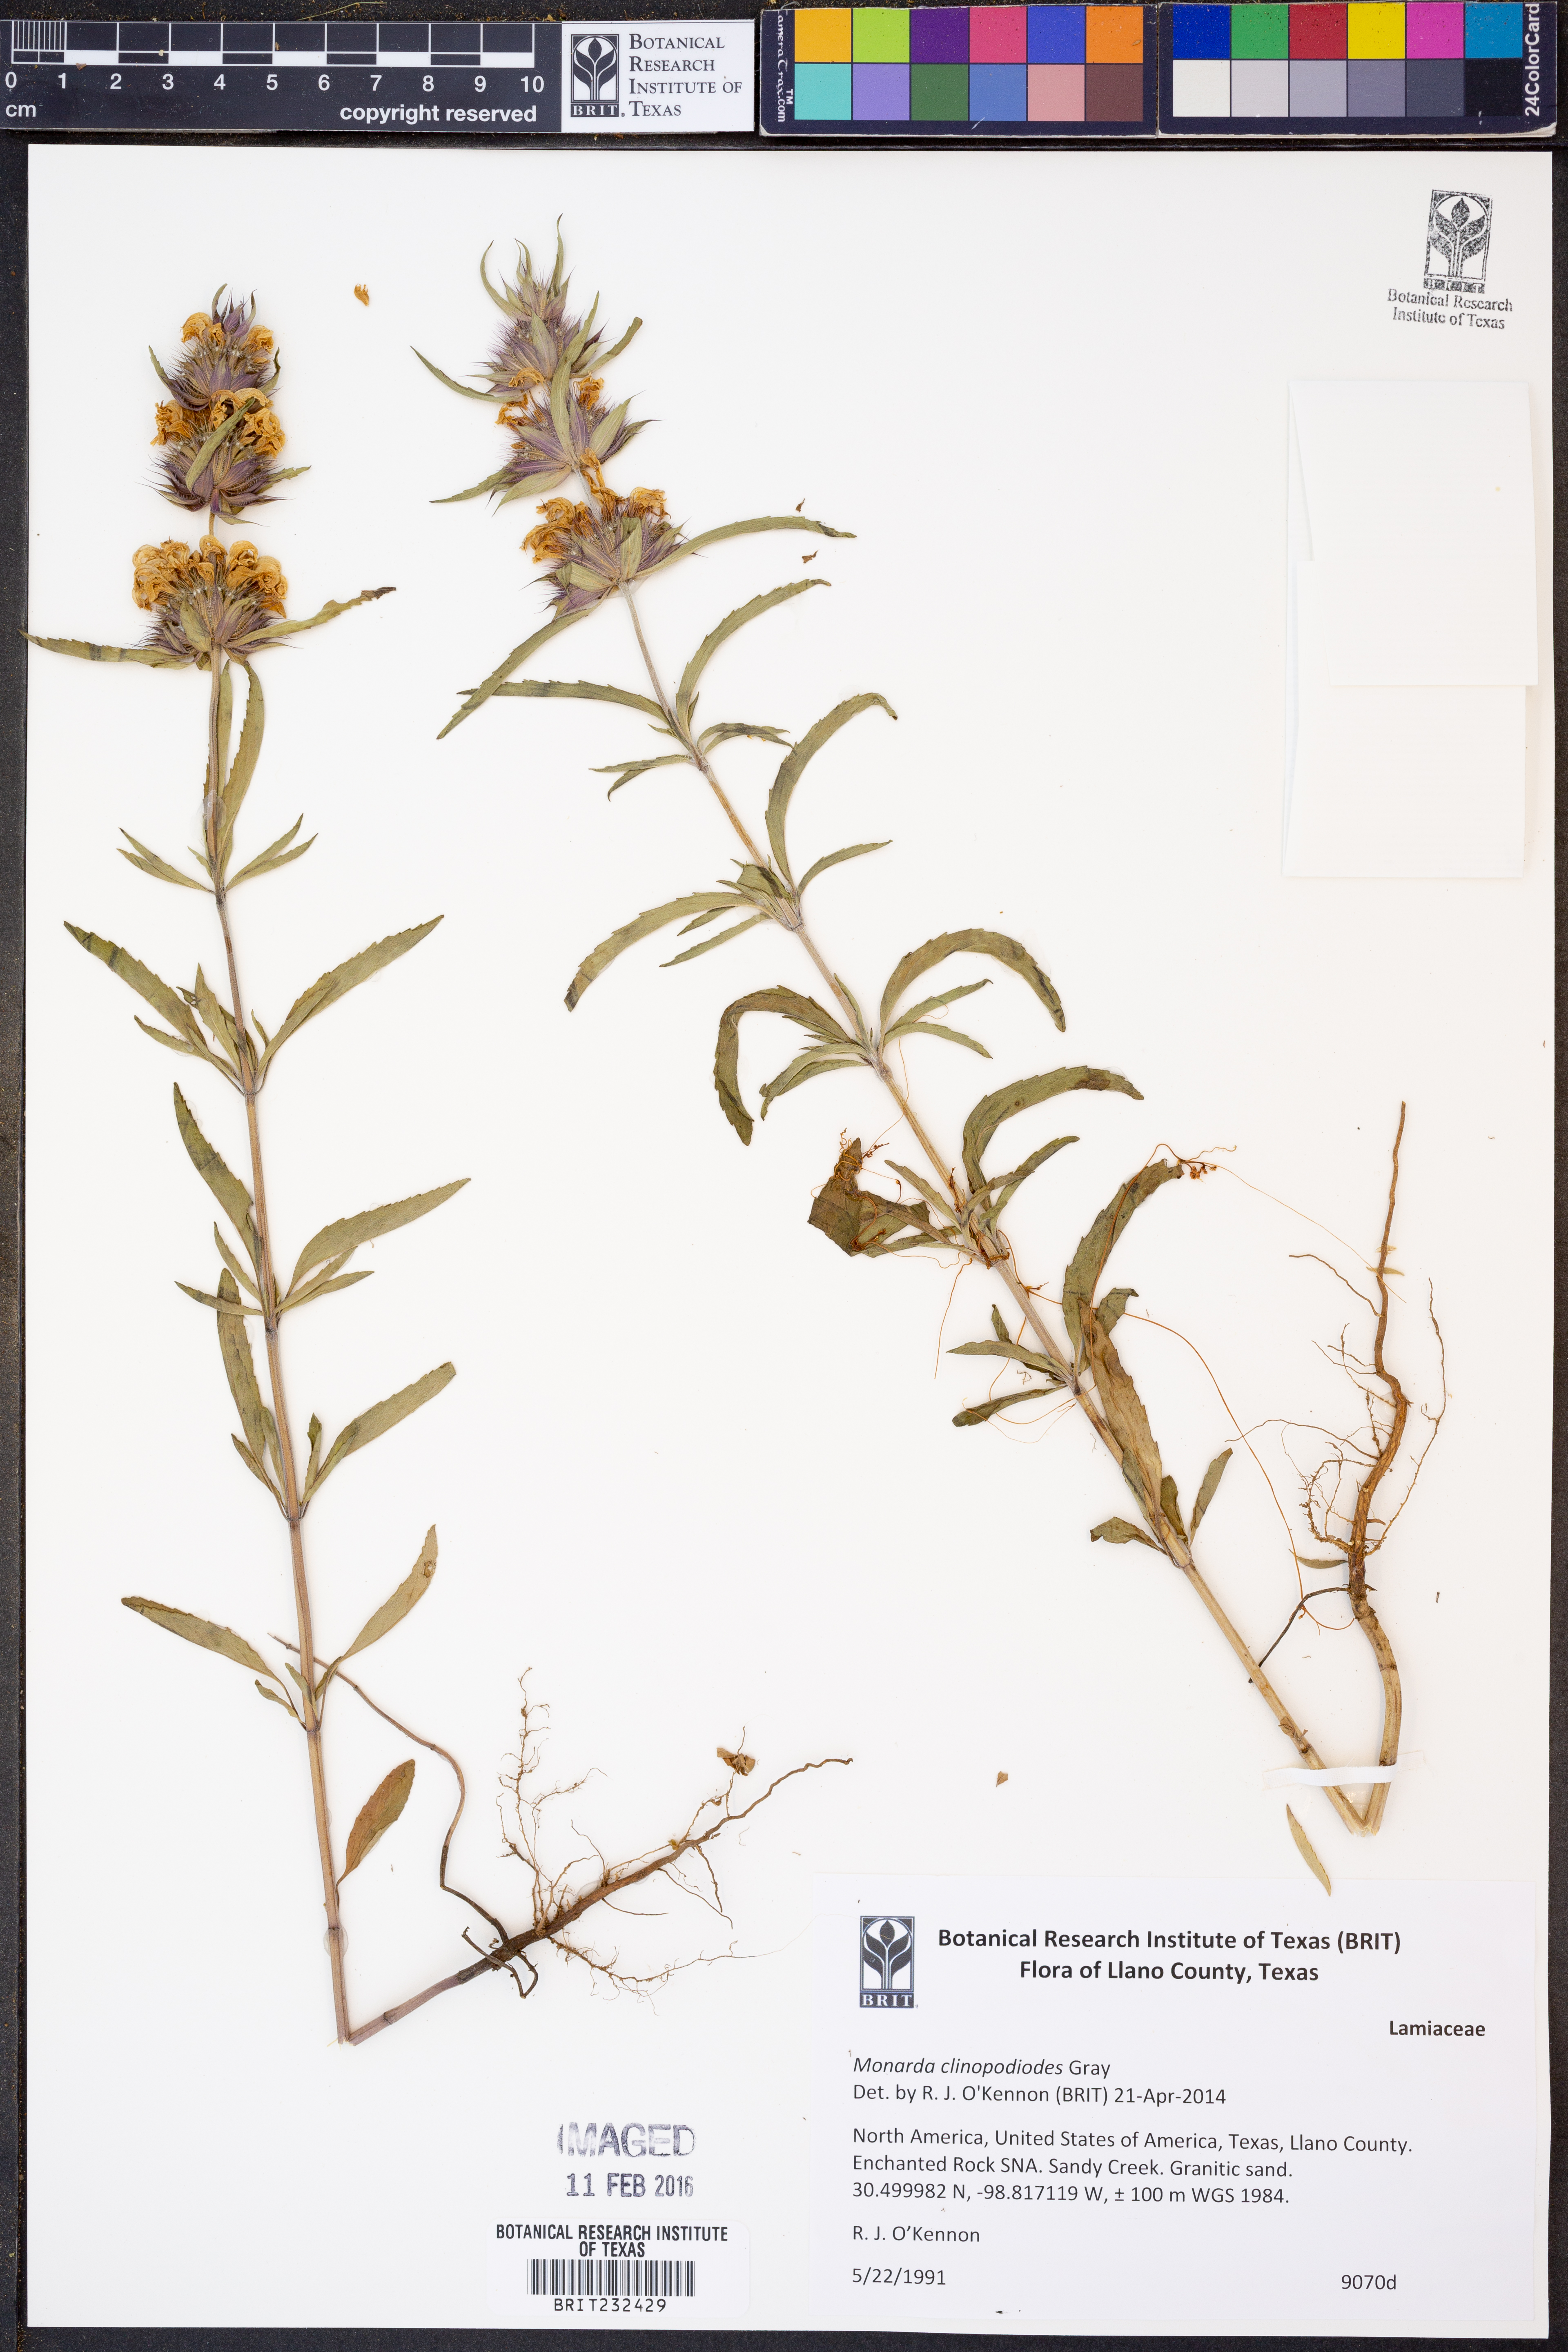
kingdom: Plantae
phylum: Tracheophyta
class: Magnoliopsida
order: Lamiales
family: Lamiaceae
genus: Monarda
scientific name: Monarda clinopodioides
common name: Basil beebalm
